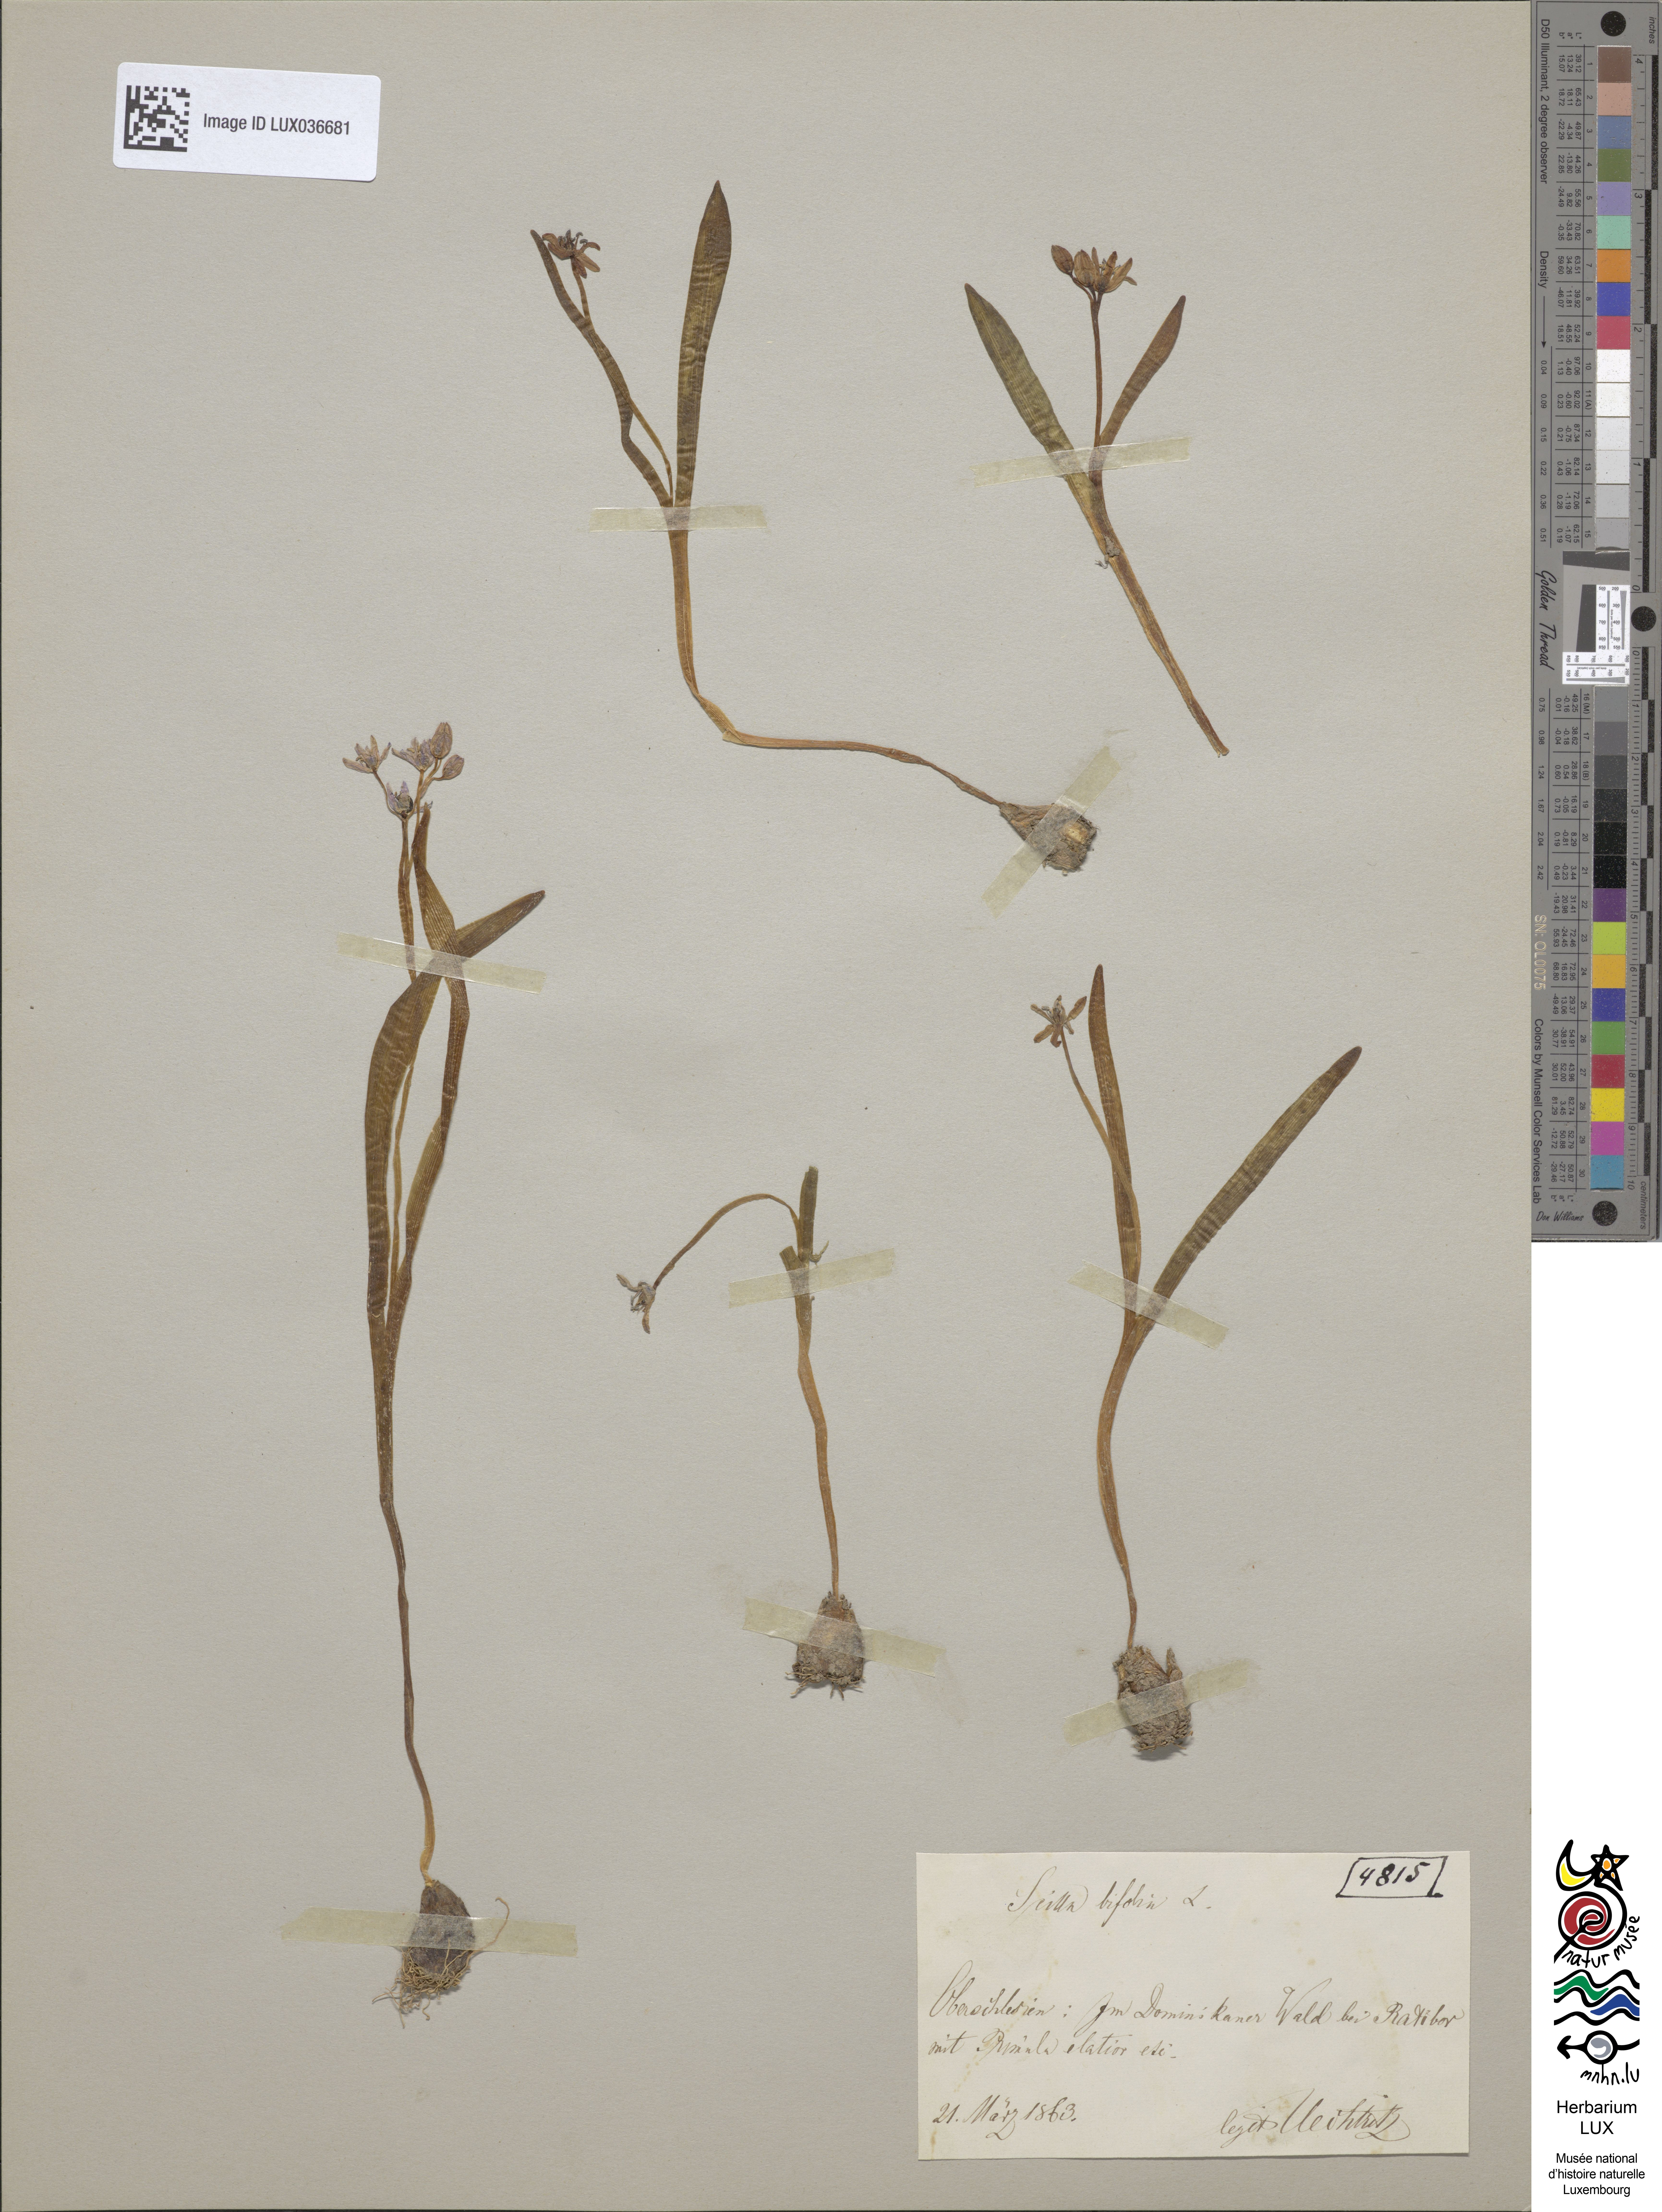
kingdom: Plantae
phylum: Tracheophyta
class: Liliopsida
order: Asparagales
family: Asparagaceae
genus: Scilla
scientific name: Scilla bifolia
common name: Alpine squill
